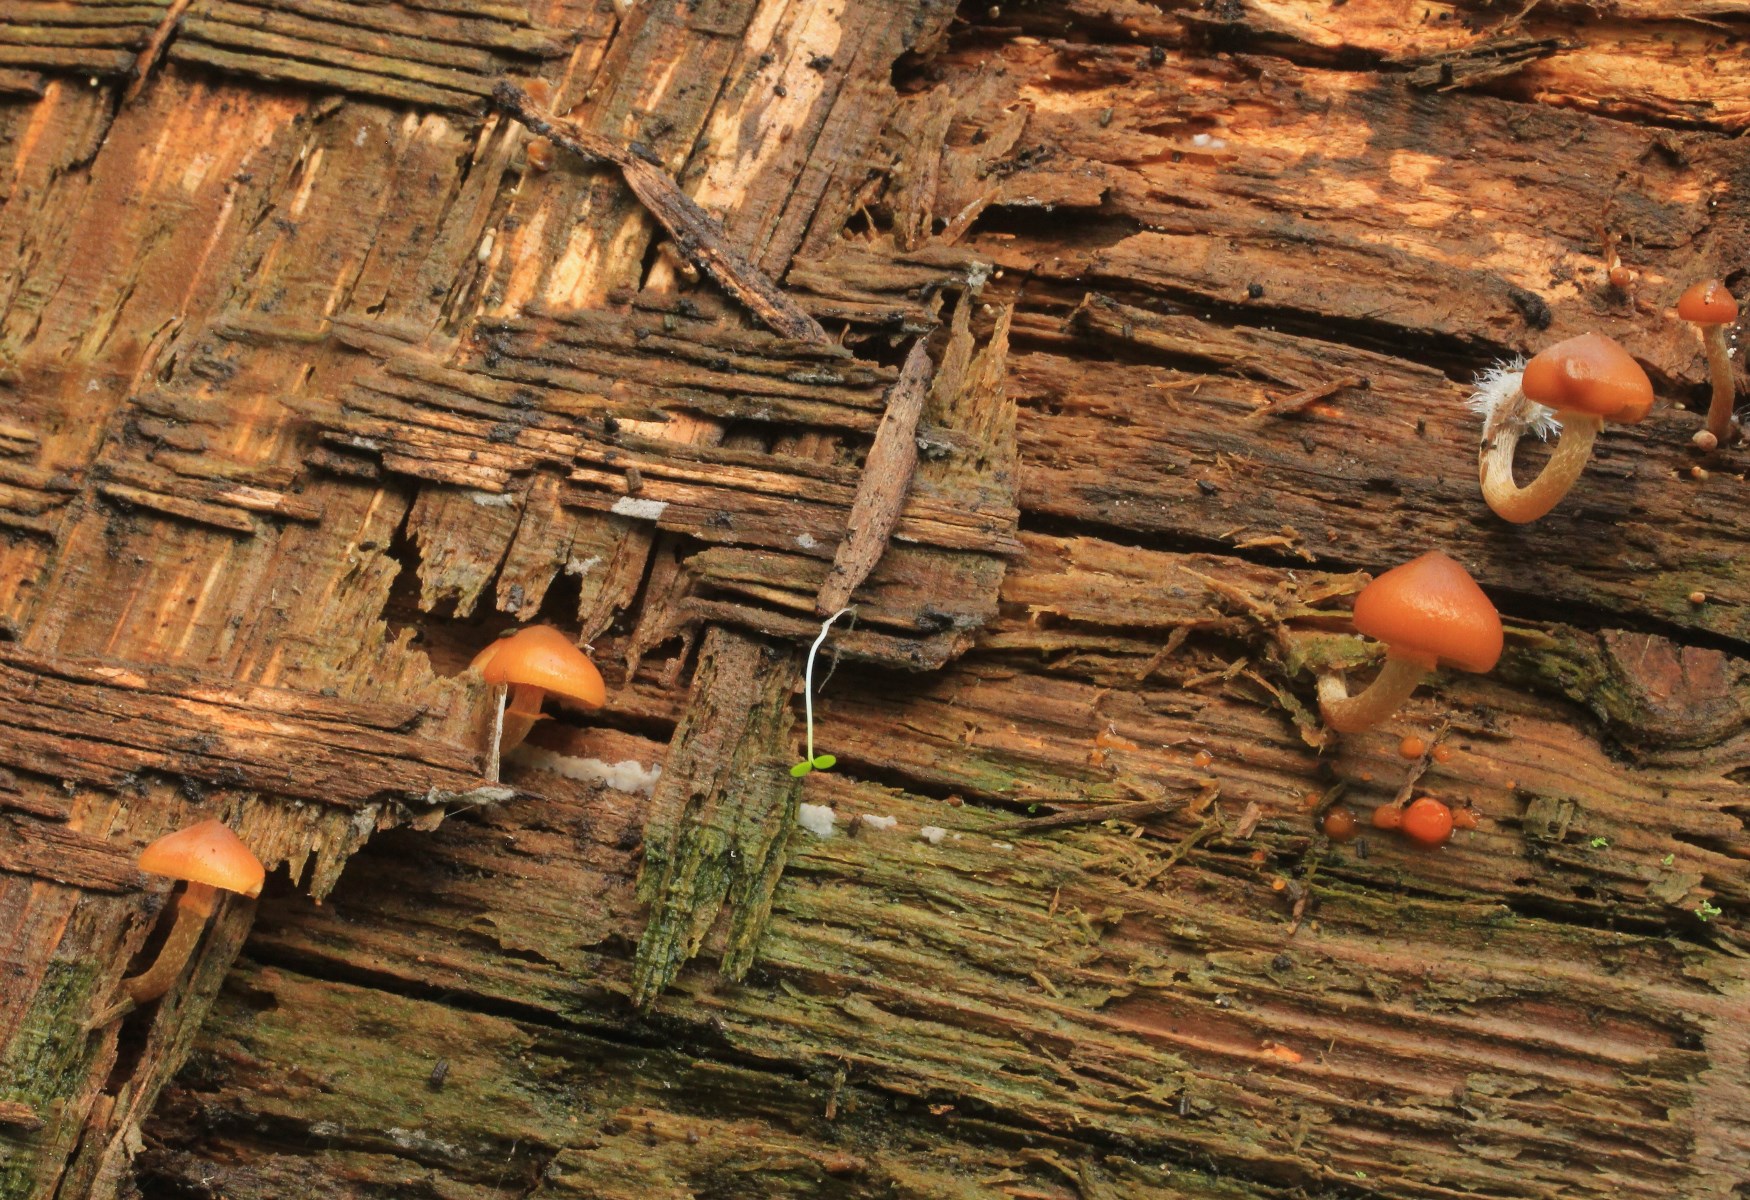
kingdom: Fungi
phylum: Basidiomycota
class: Agaricomycetes
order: Agaricales
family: Hymenogastraceae
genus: Galerina
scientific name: Galerina marginata
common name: randbæltet hjelmhat
